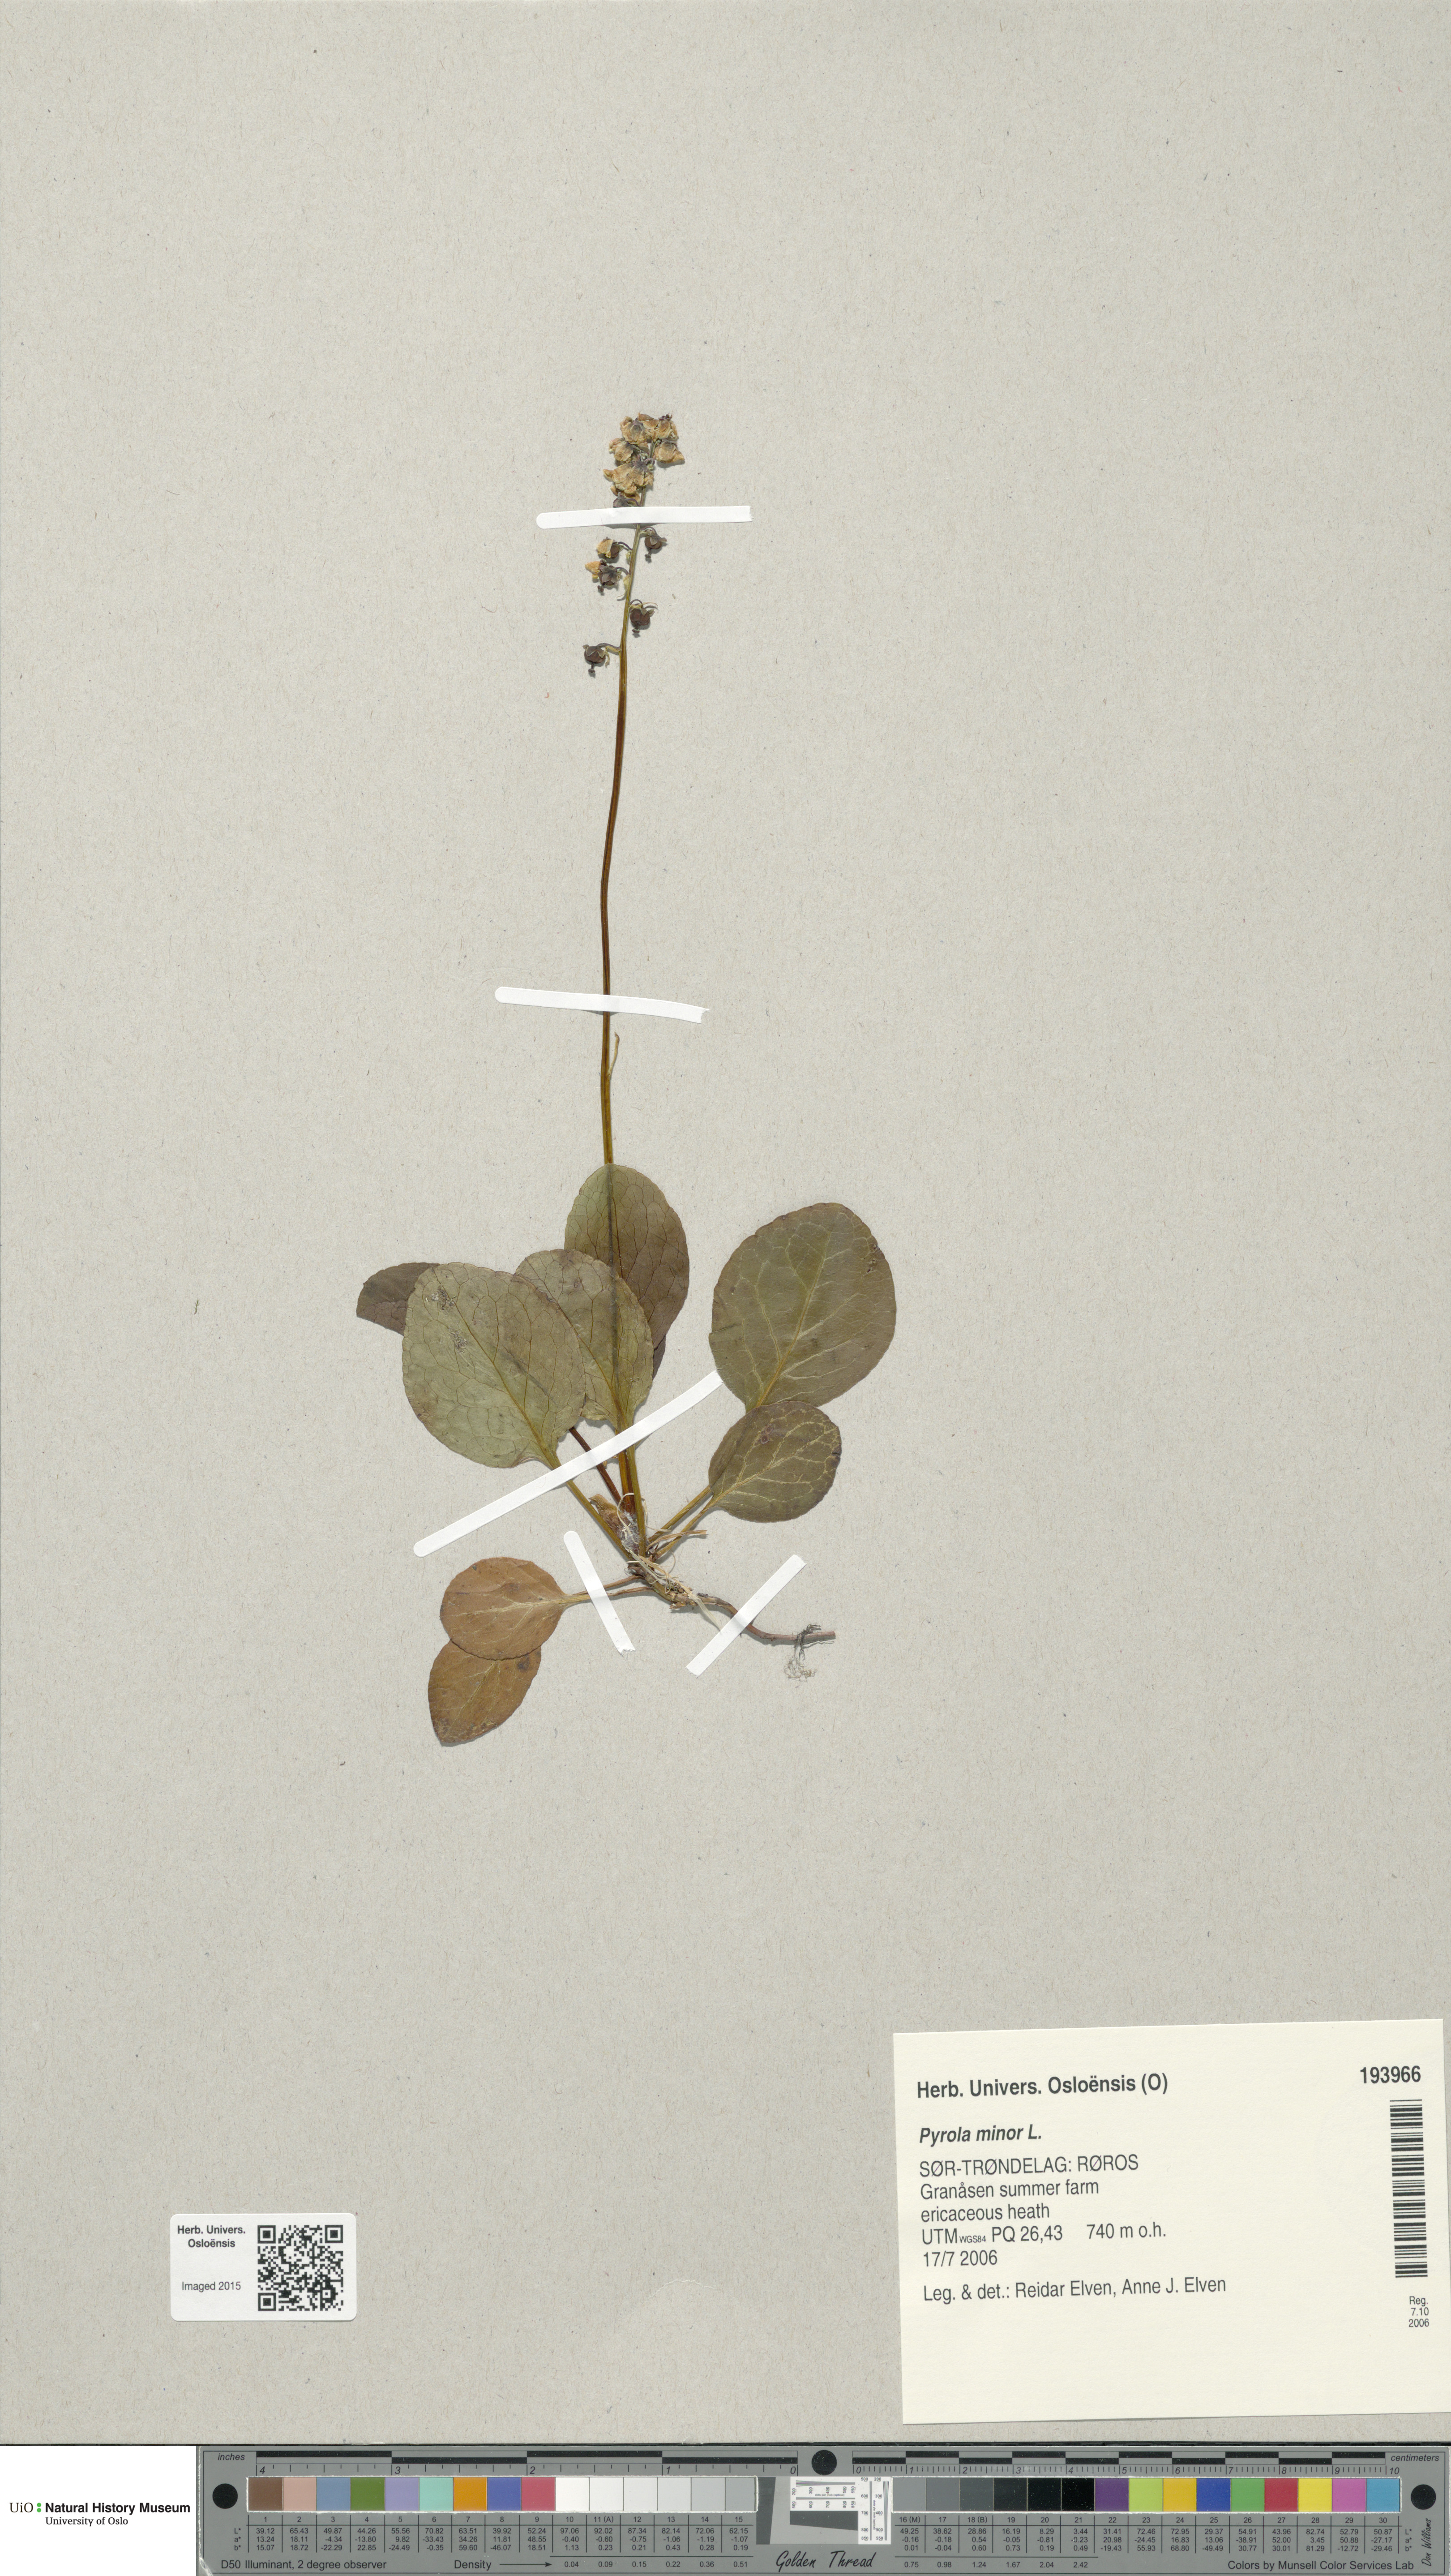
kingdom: Plantae
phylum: Tracheophyta
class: Magnoliopsida
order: Ericales
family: Ericaceae
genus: Pyrola
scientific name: Pyrola minor
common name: Common wintergreen
